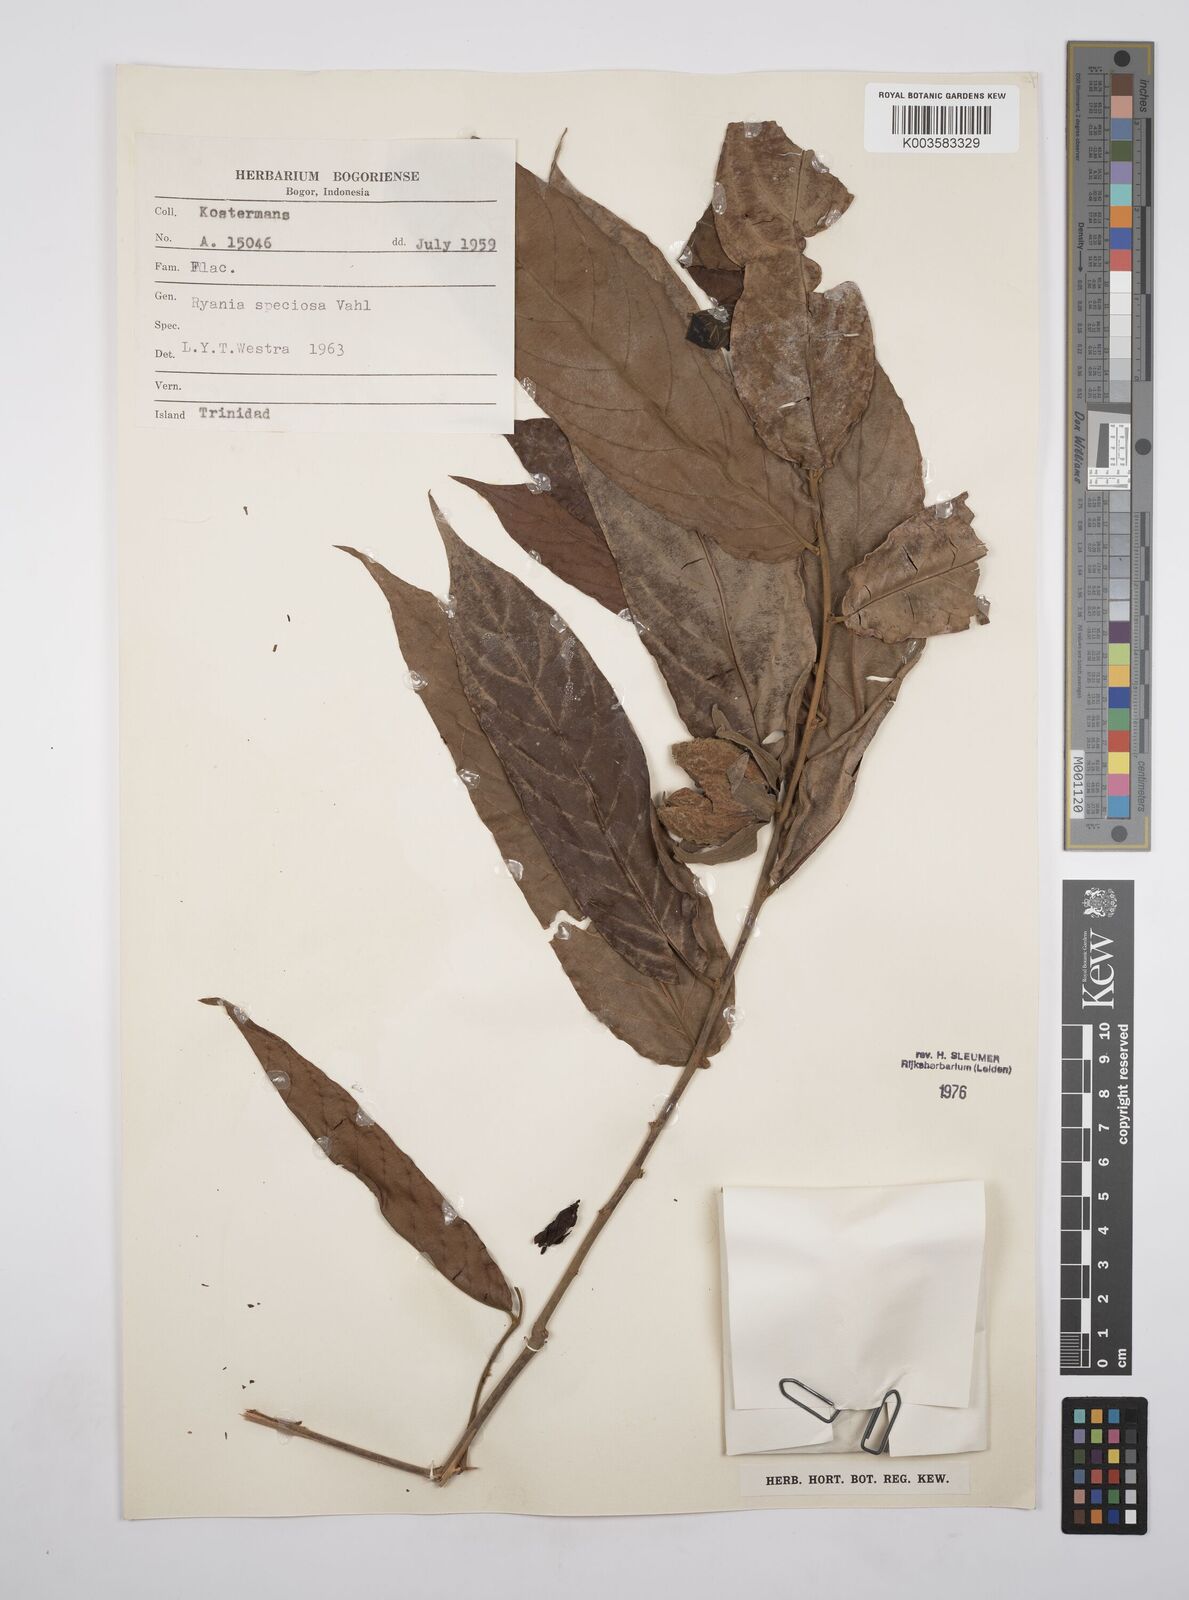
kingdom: Plantae
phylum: Tracheophyta
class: Magnoliopsida
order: Malpighiales
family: Salicaceae
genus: Ryania
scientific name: Ryania speciosa
